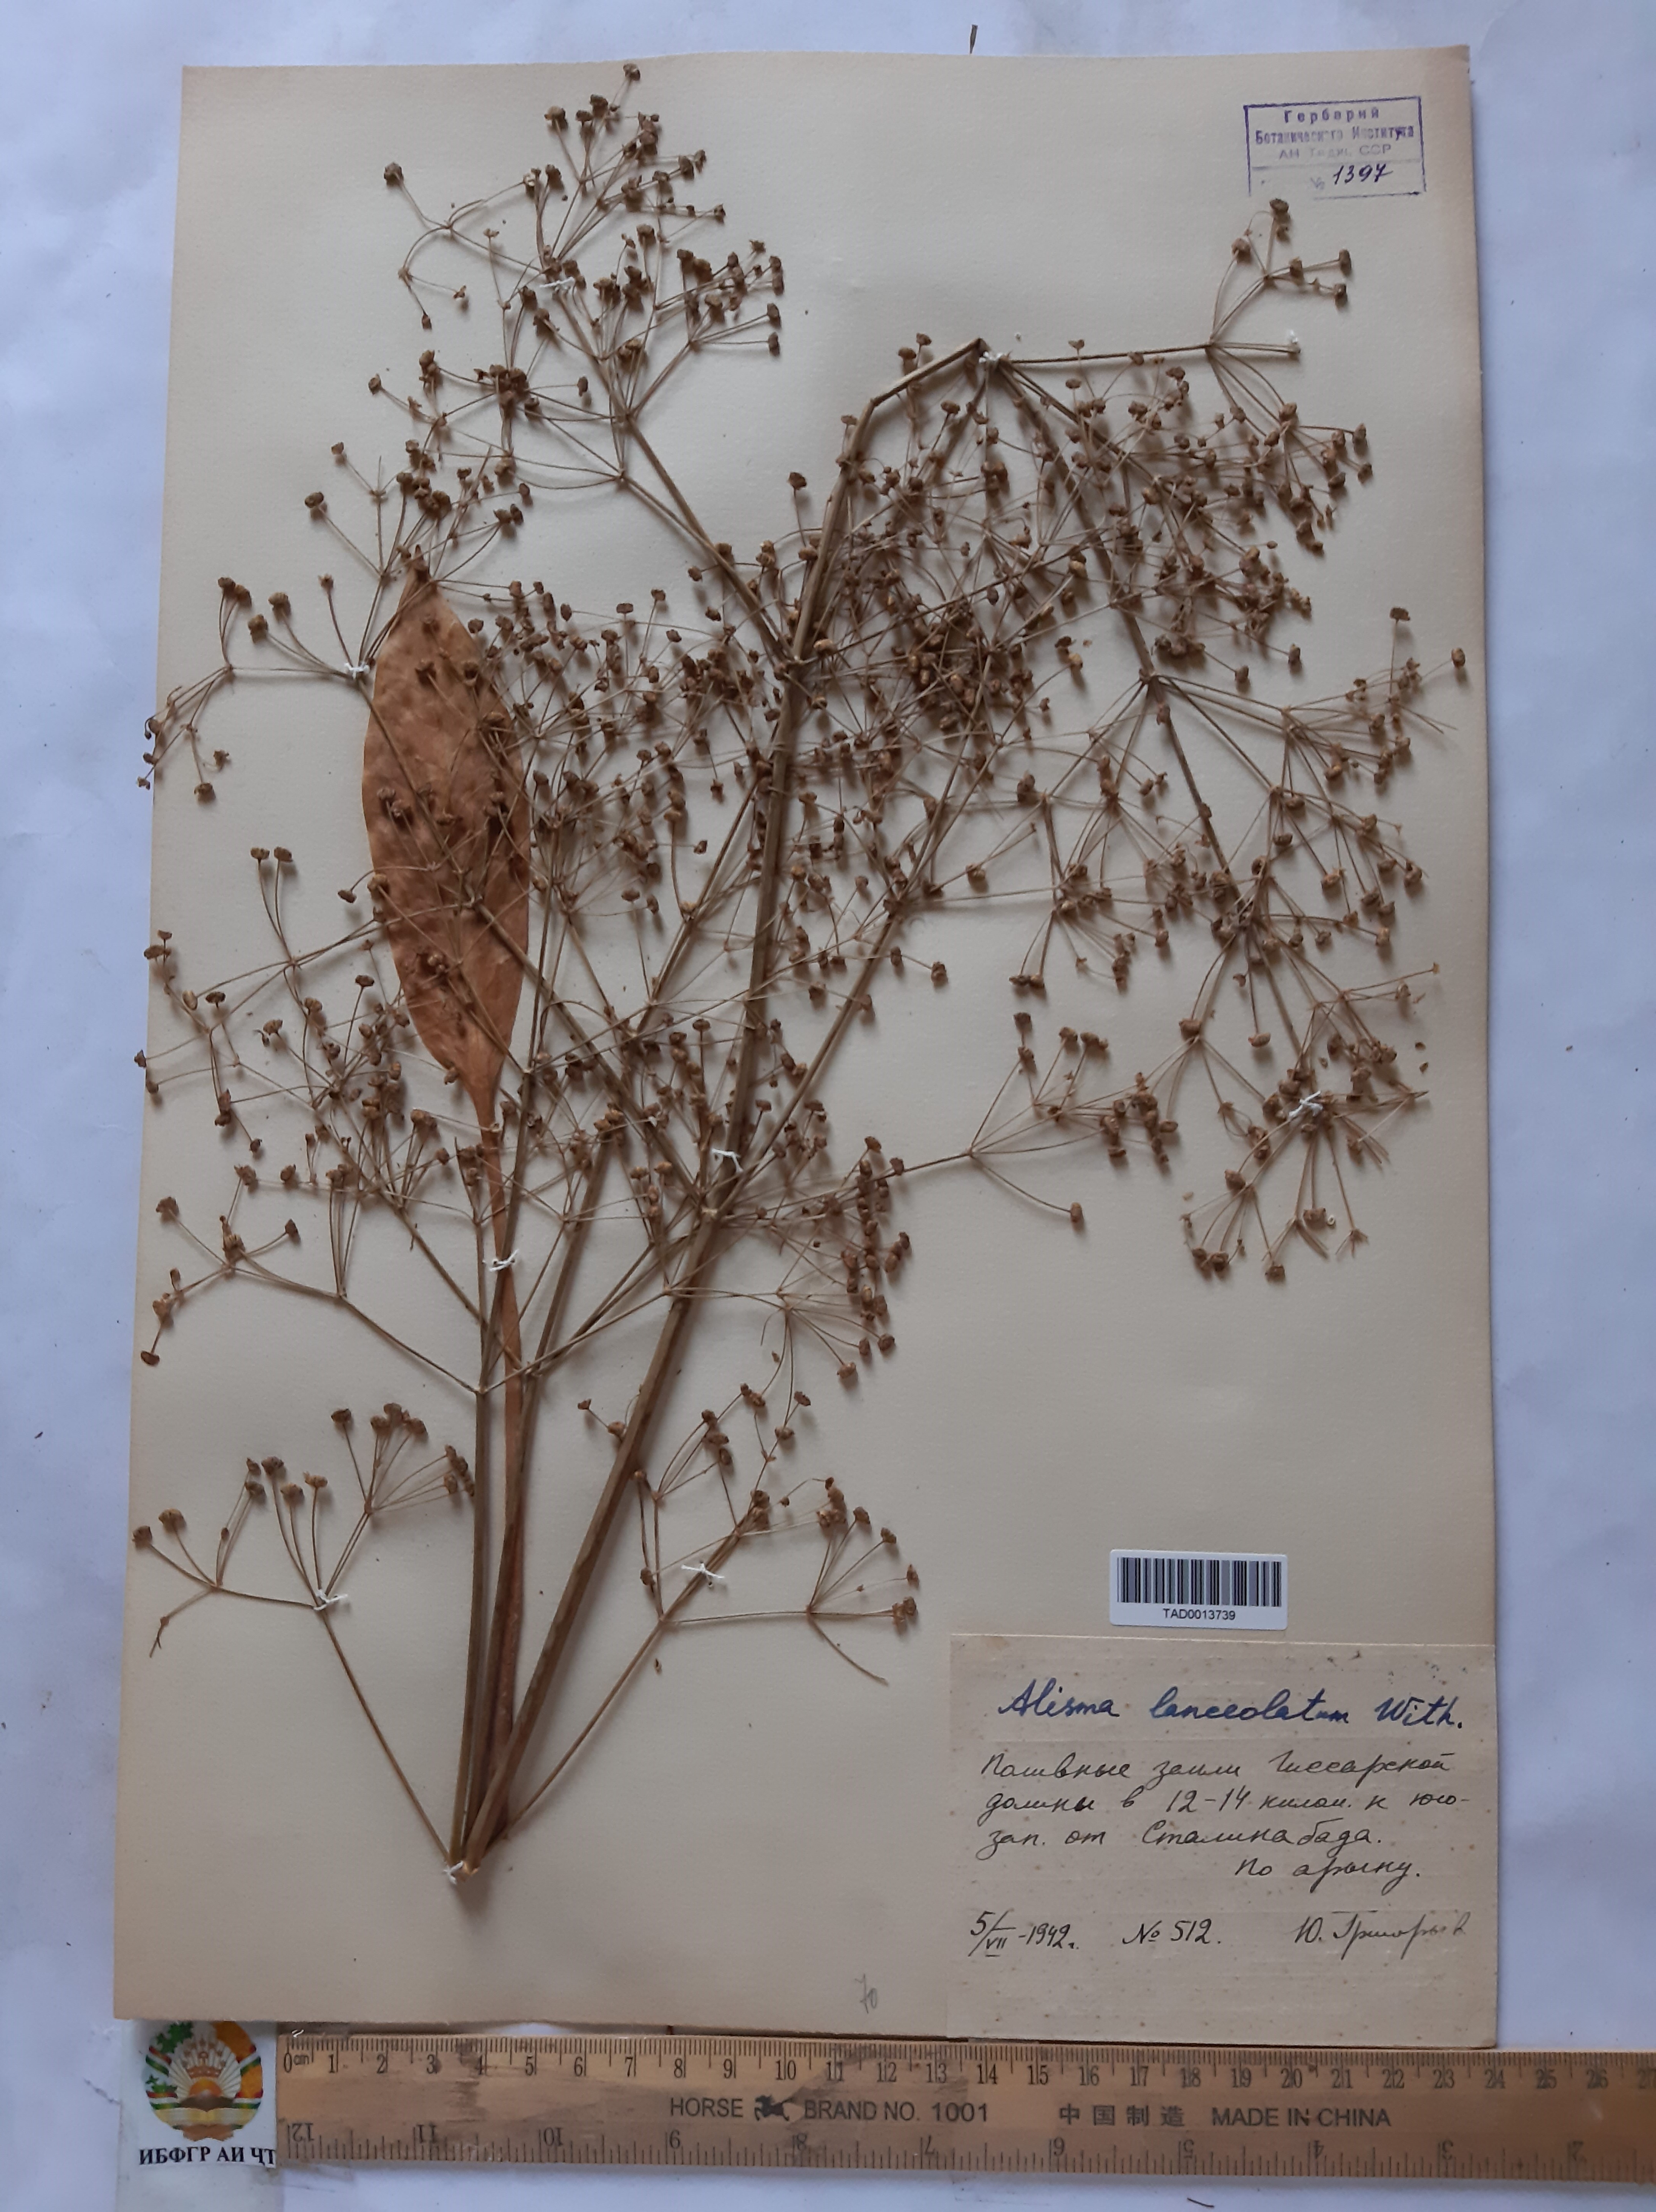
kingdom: Plantae
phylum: Tracheophyta
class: Liliopsida
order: Alismatales
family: Alismataceae
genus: Alisma
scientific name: Alisma lanceolatum
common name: Narrow-leaved water-plantain
